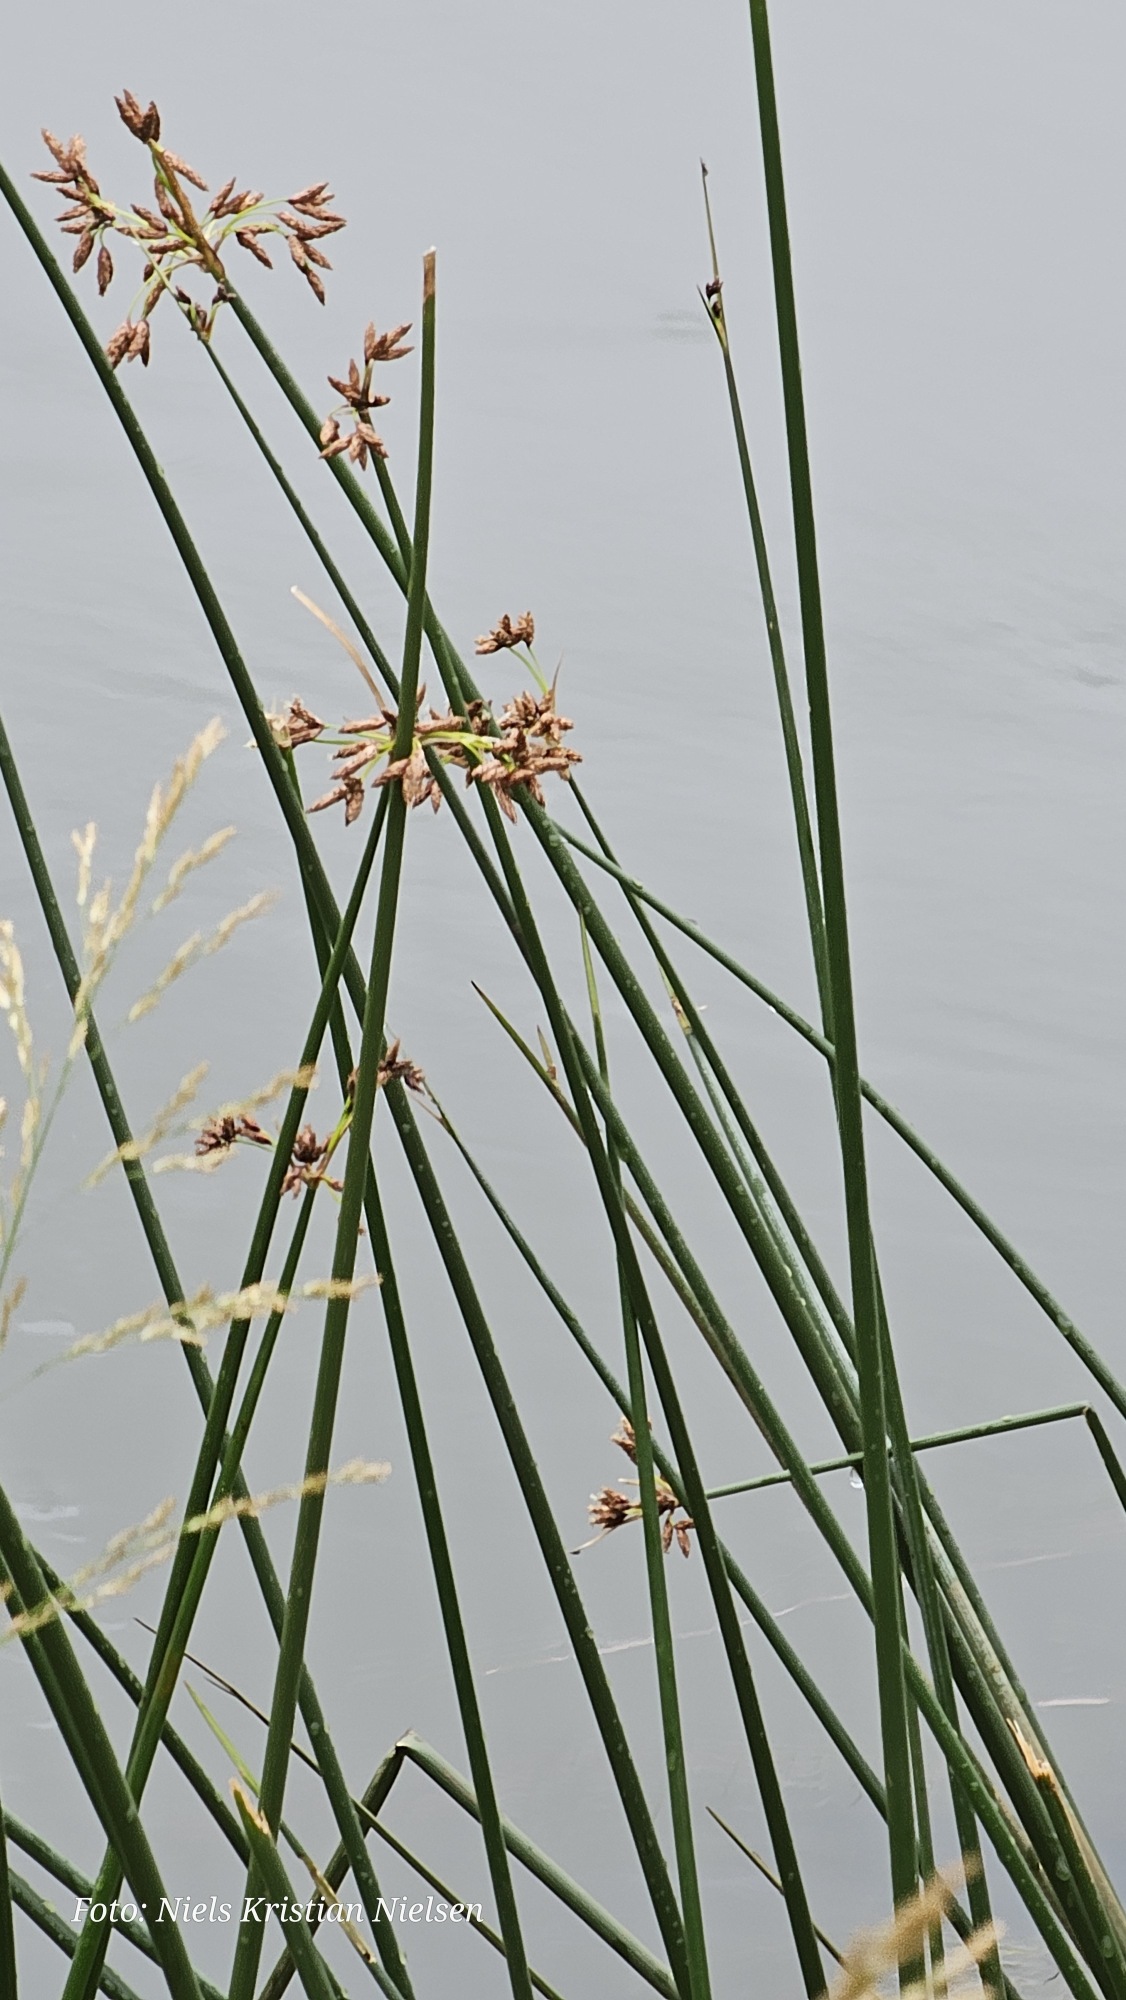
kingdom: Plantae
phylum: Tracheophyta
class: Liliopsida
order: Poales
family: Cyperaceae
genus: Schoenoplectus
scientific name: Schoenoplectus lacustris
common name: Sø-kogleaks
